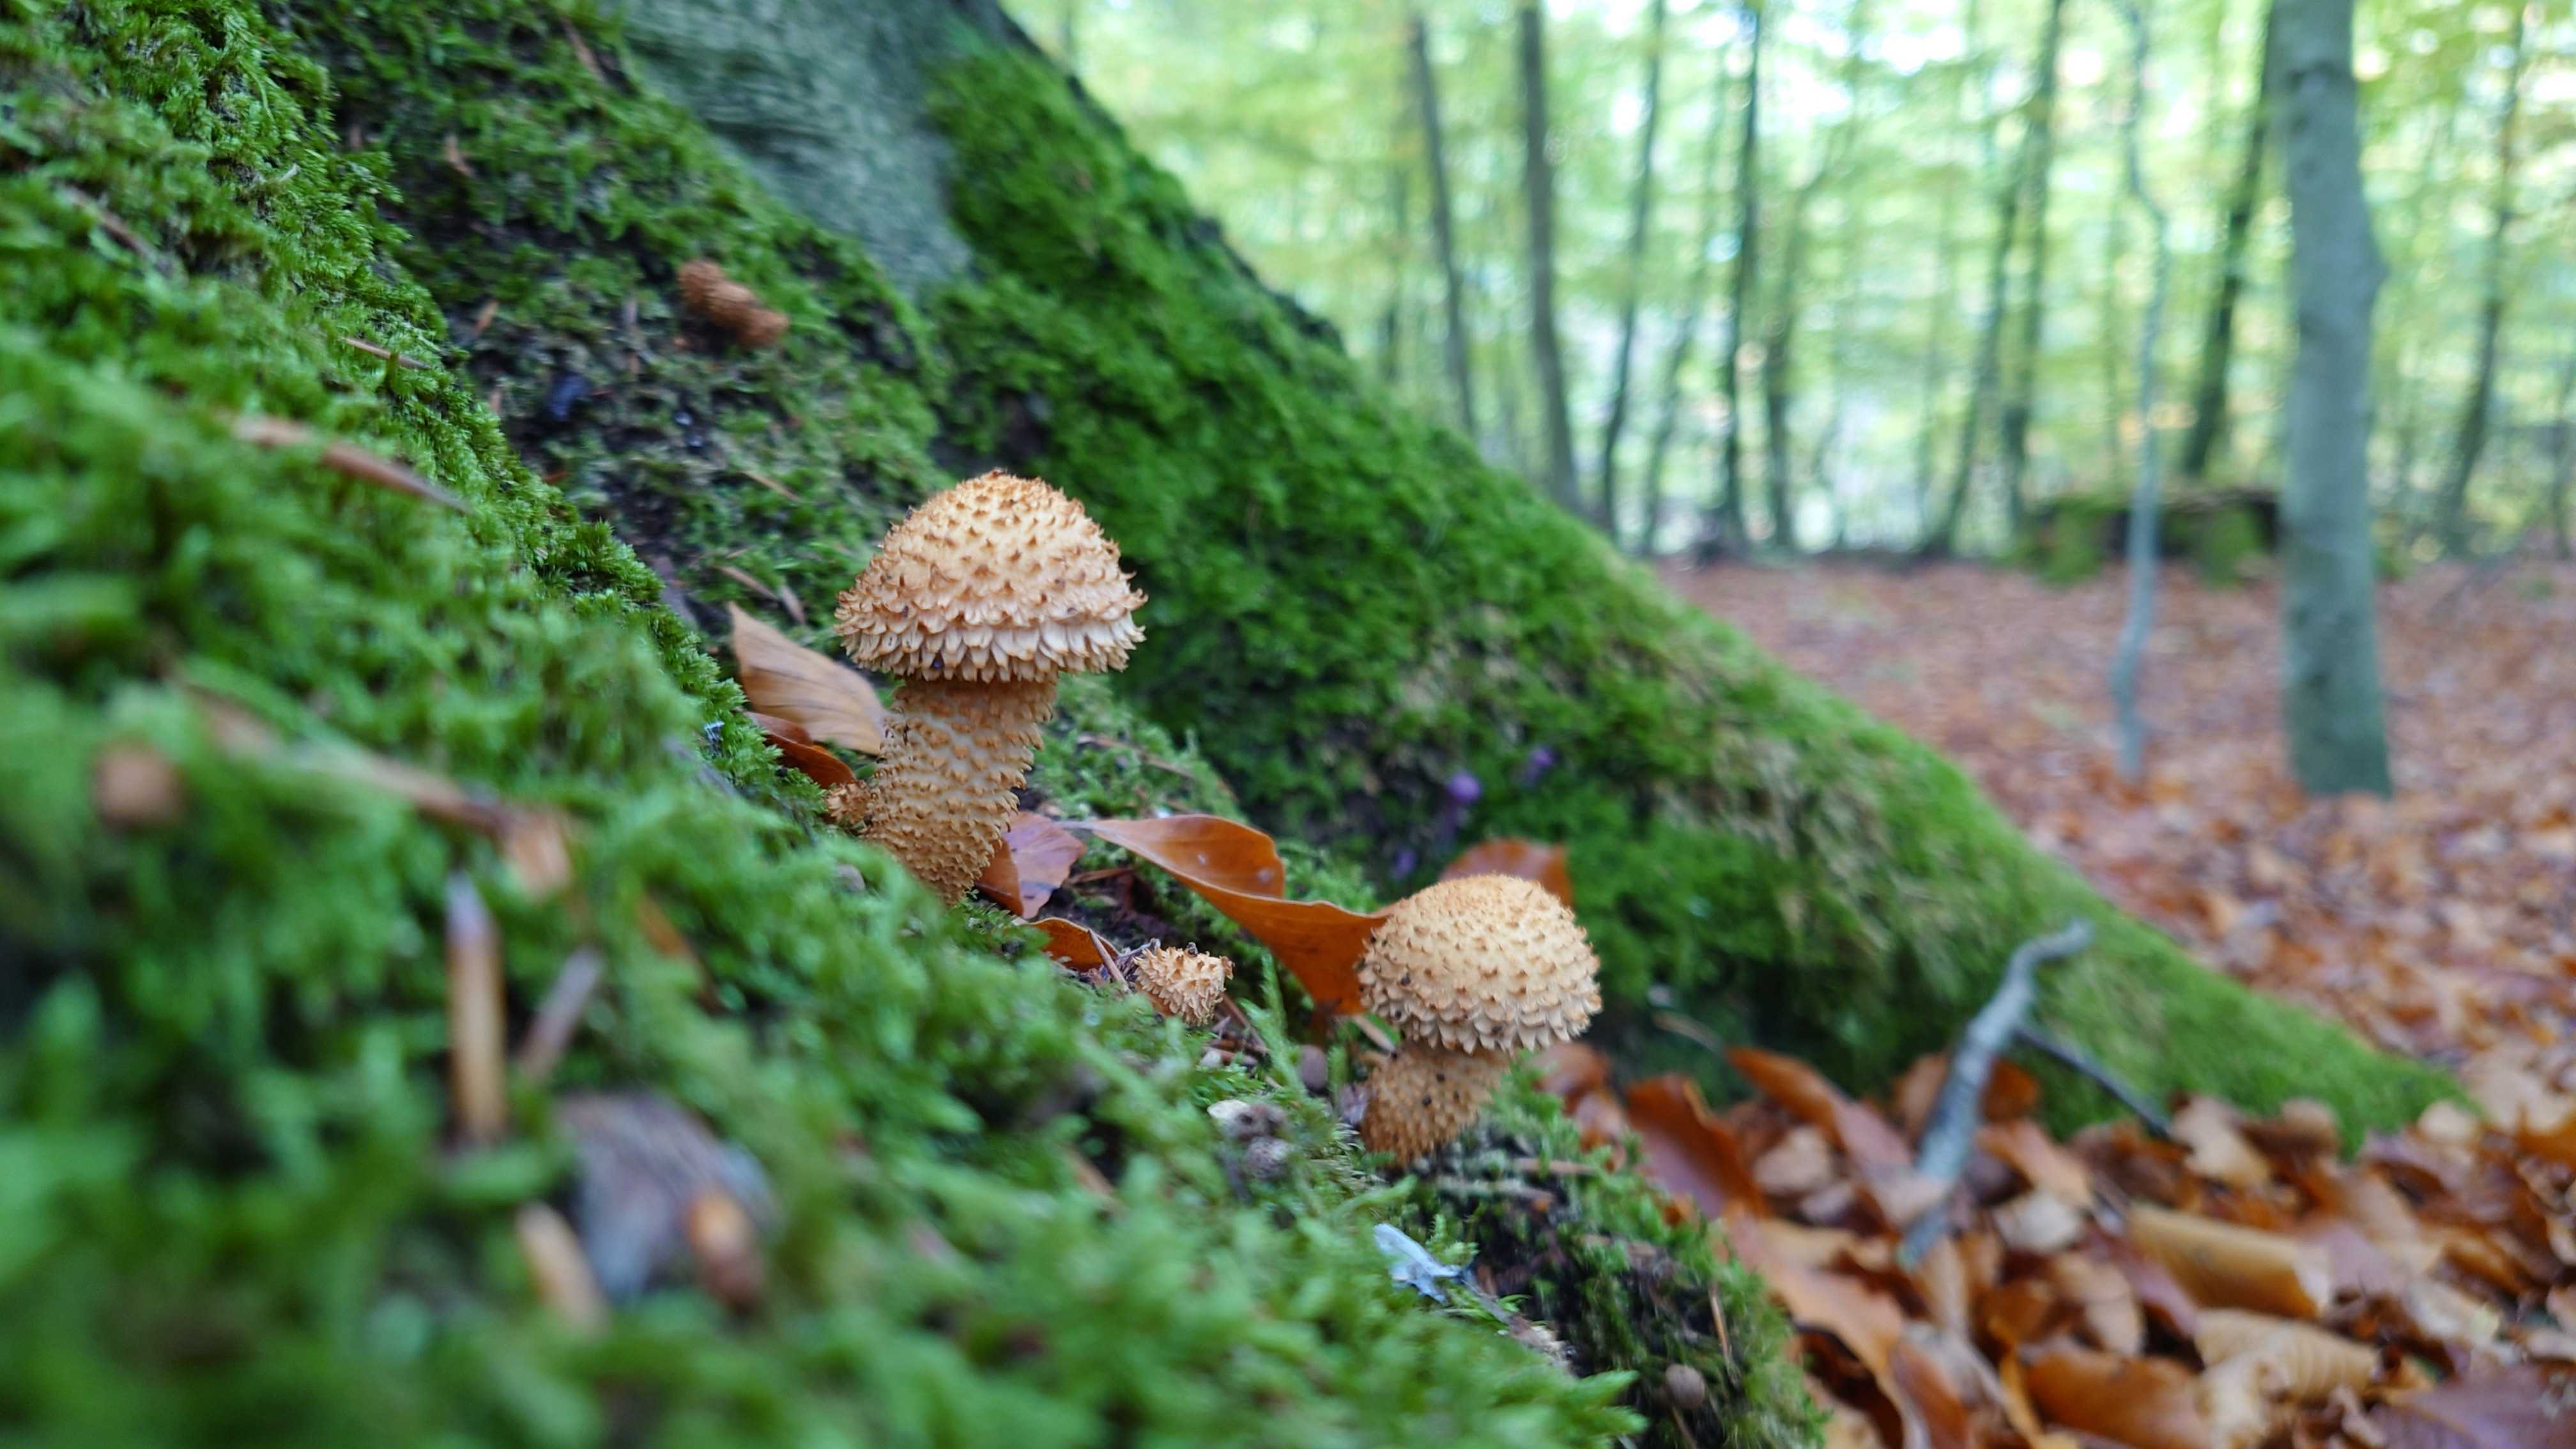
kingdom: Fungi
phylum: Basidiomycota
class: Agaricomycetes
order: Agaricales
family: Strophariaceae
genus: Pholiota
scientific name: Pholiota squarrosa
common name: krumskællet skælhat
